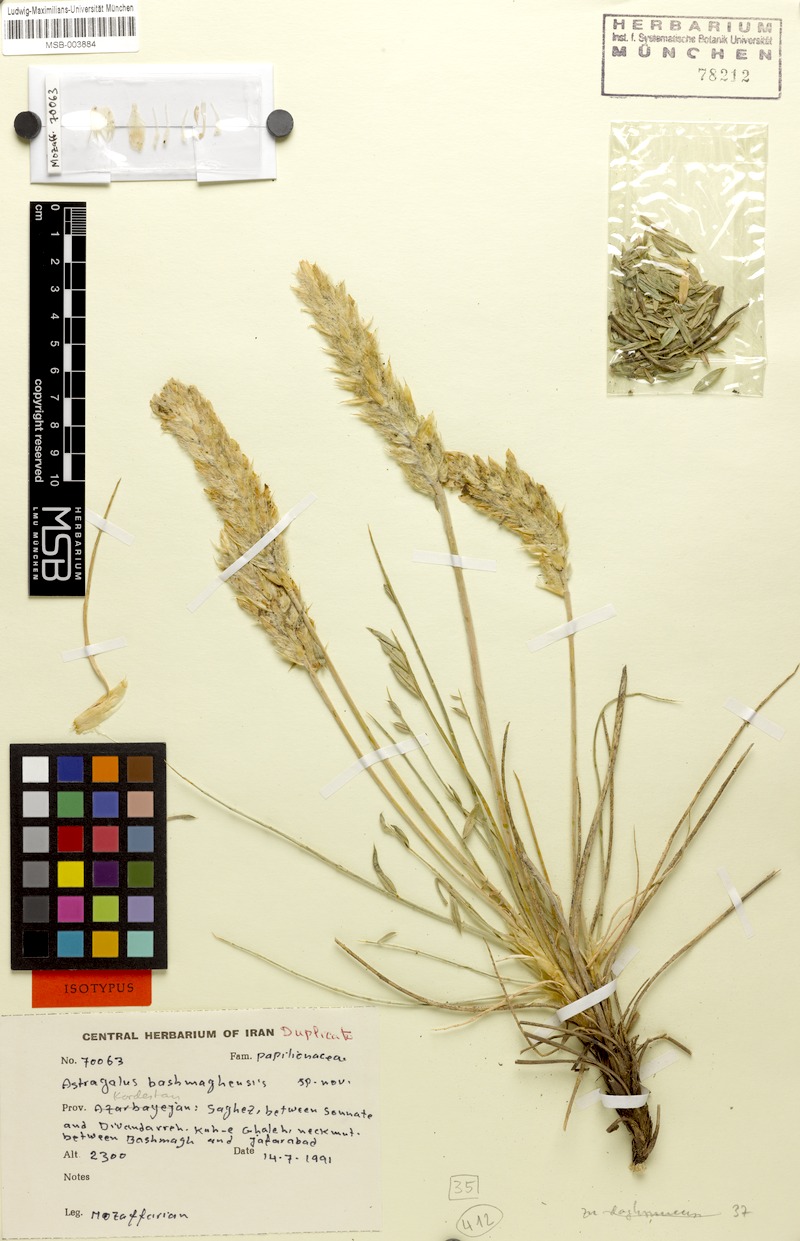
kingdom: Plantae
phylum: Tracheophyta
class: Magnoliopsida
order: Fabales
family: Fabaceae
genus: Astragalus
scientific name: Astragalus bashmaghensis
